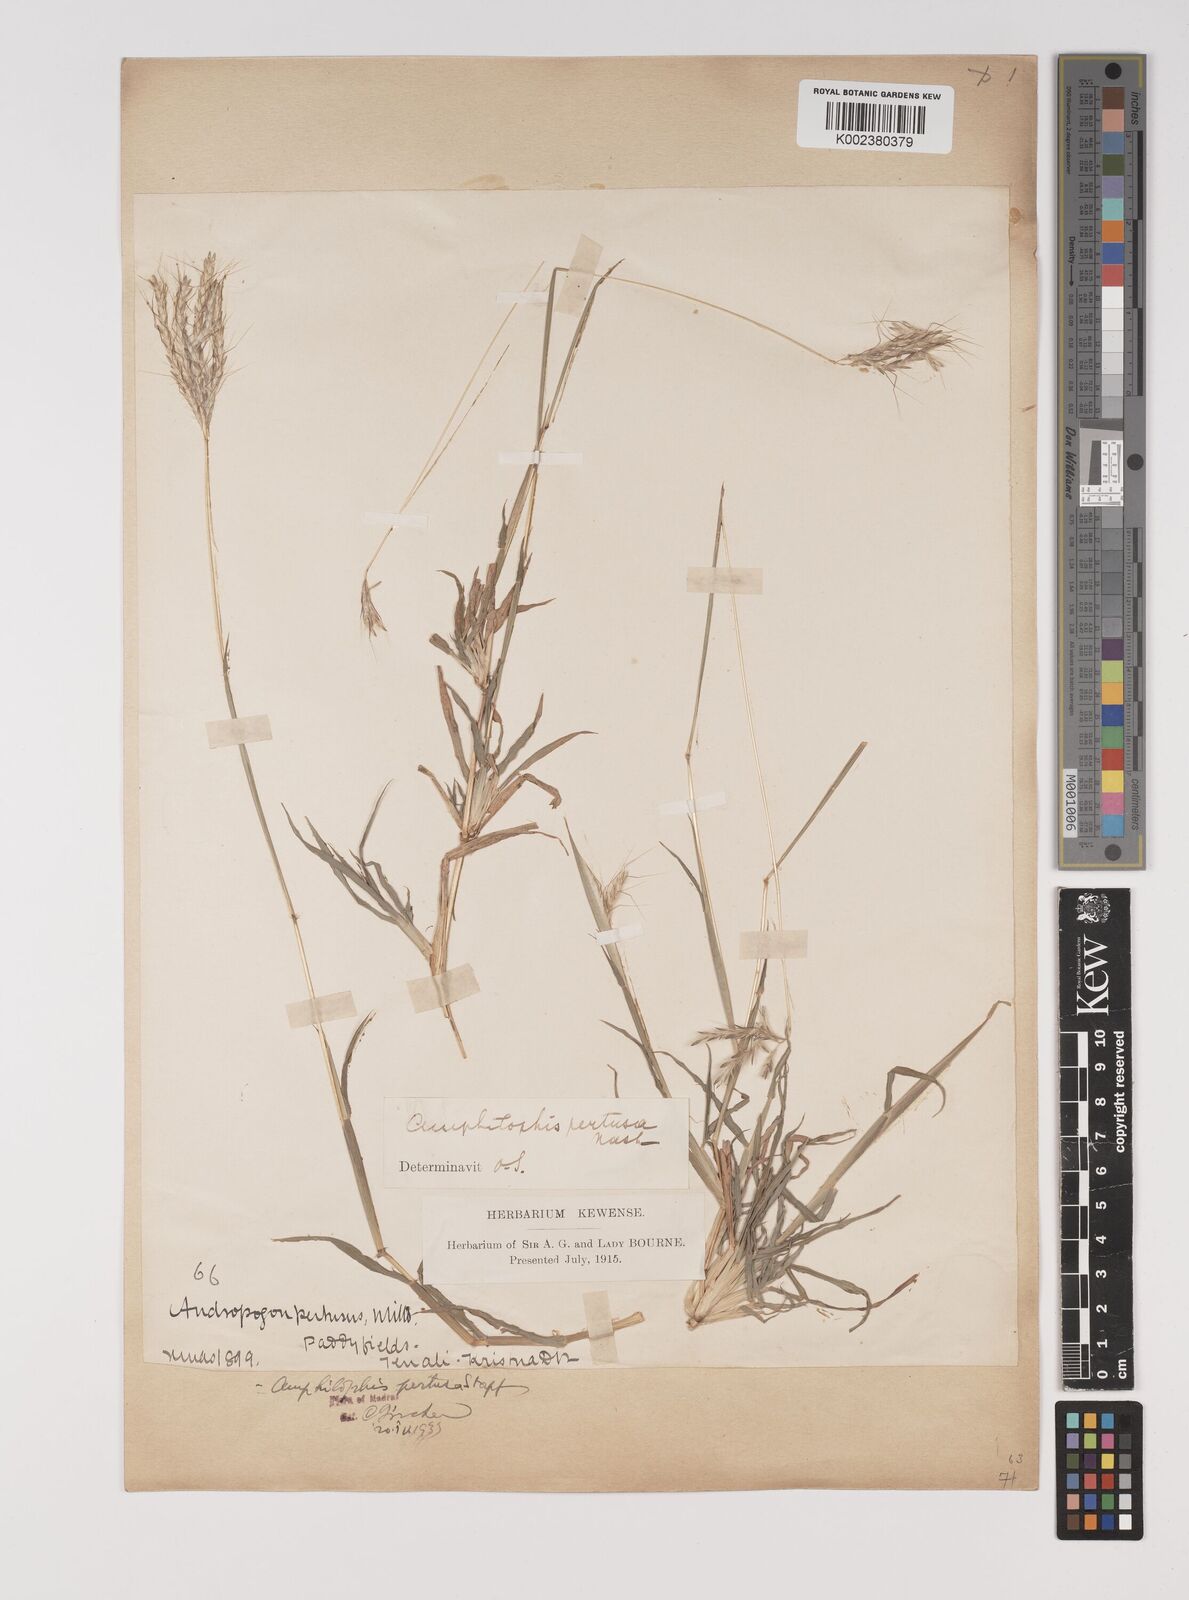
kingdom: Plantae
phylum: Tracheophyta
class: Liliopsida
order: Poales
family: Poaceae
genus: Bothriochloa
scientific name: Bothriochloa pertusa
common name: Pitted beardgrass
